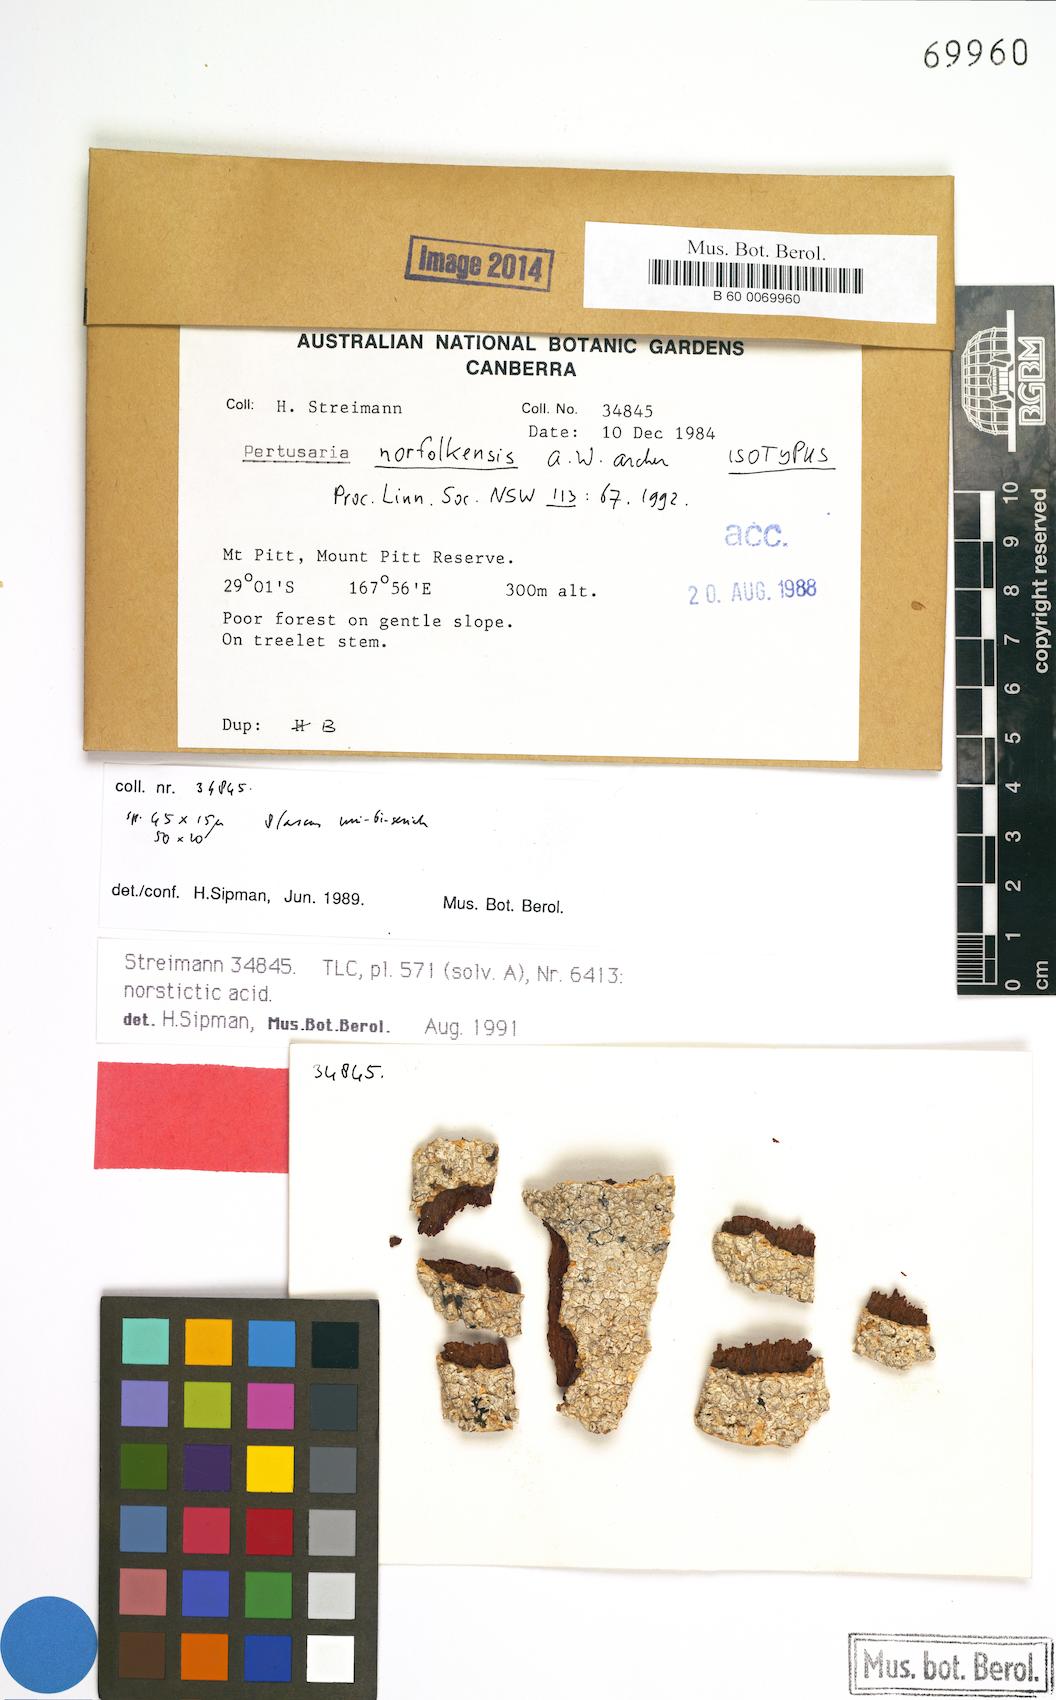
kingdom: Fungi
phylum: Ascomycota
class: Lecanoromycetes
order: Pertusariales
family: Pertusariaceae
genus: Pertusaria
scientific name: Pertusaria norfolkensis
